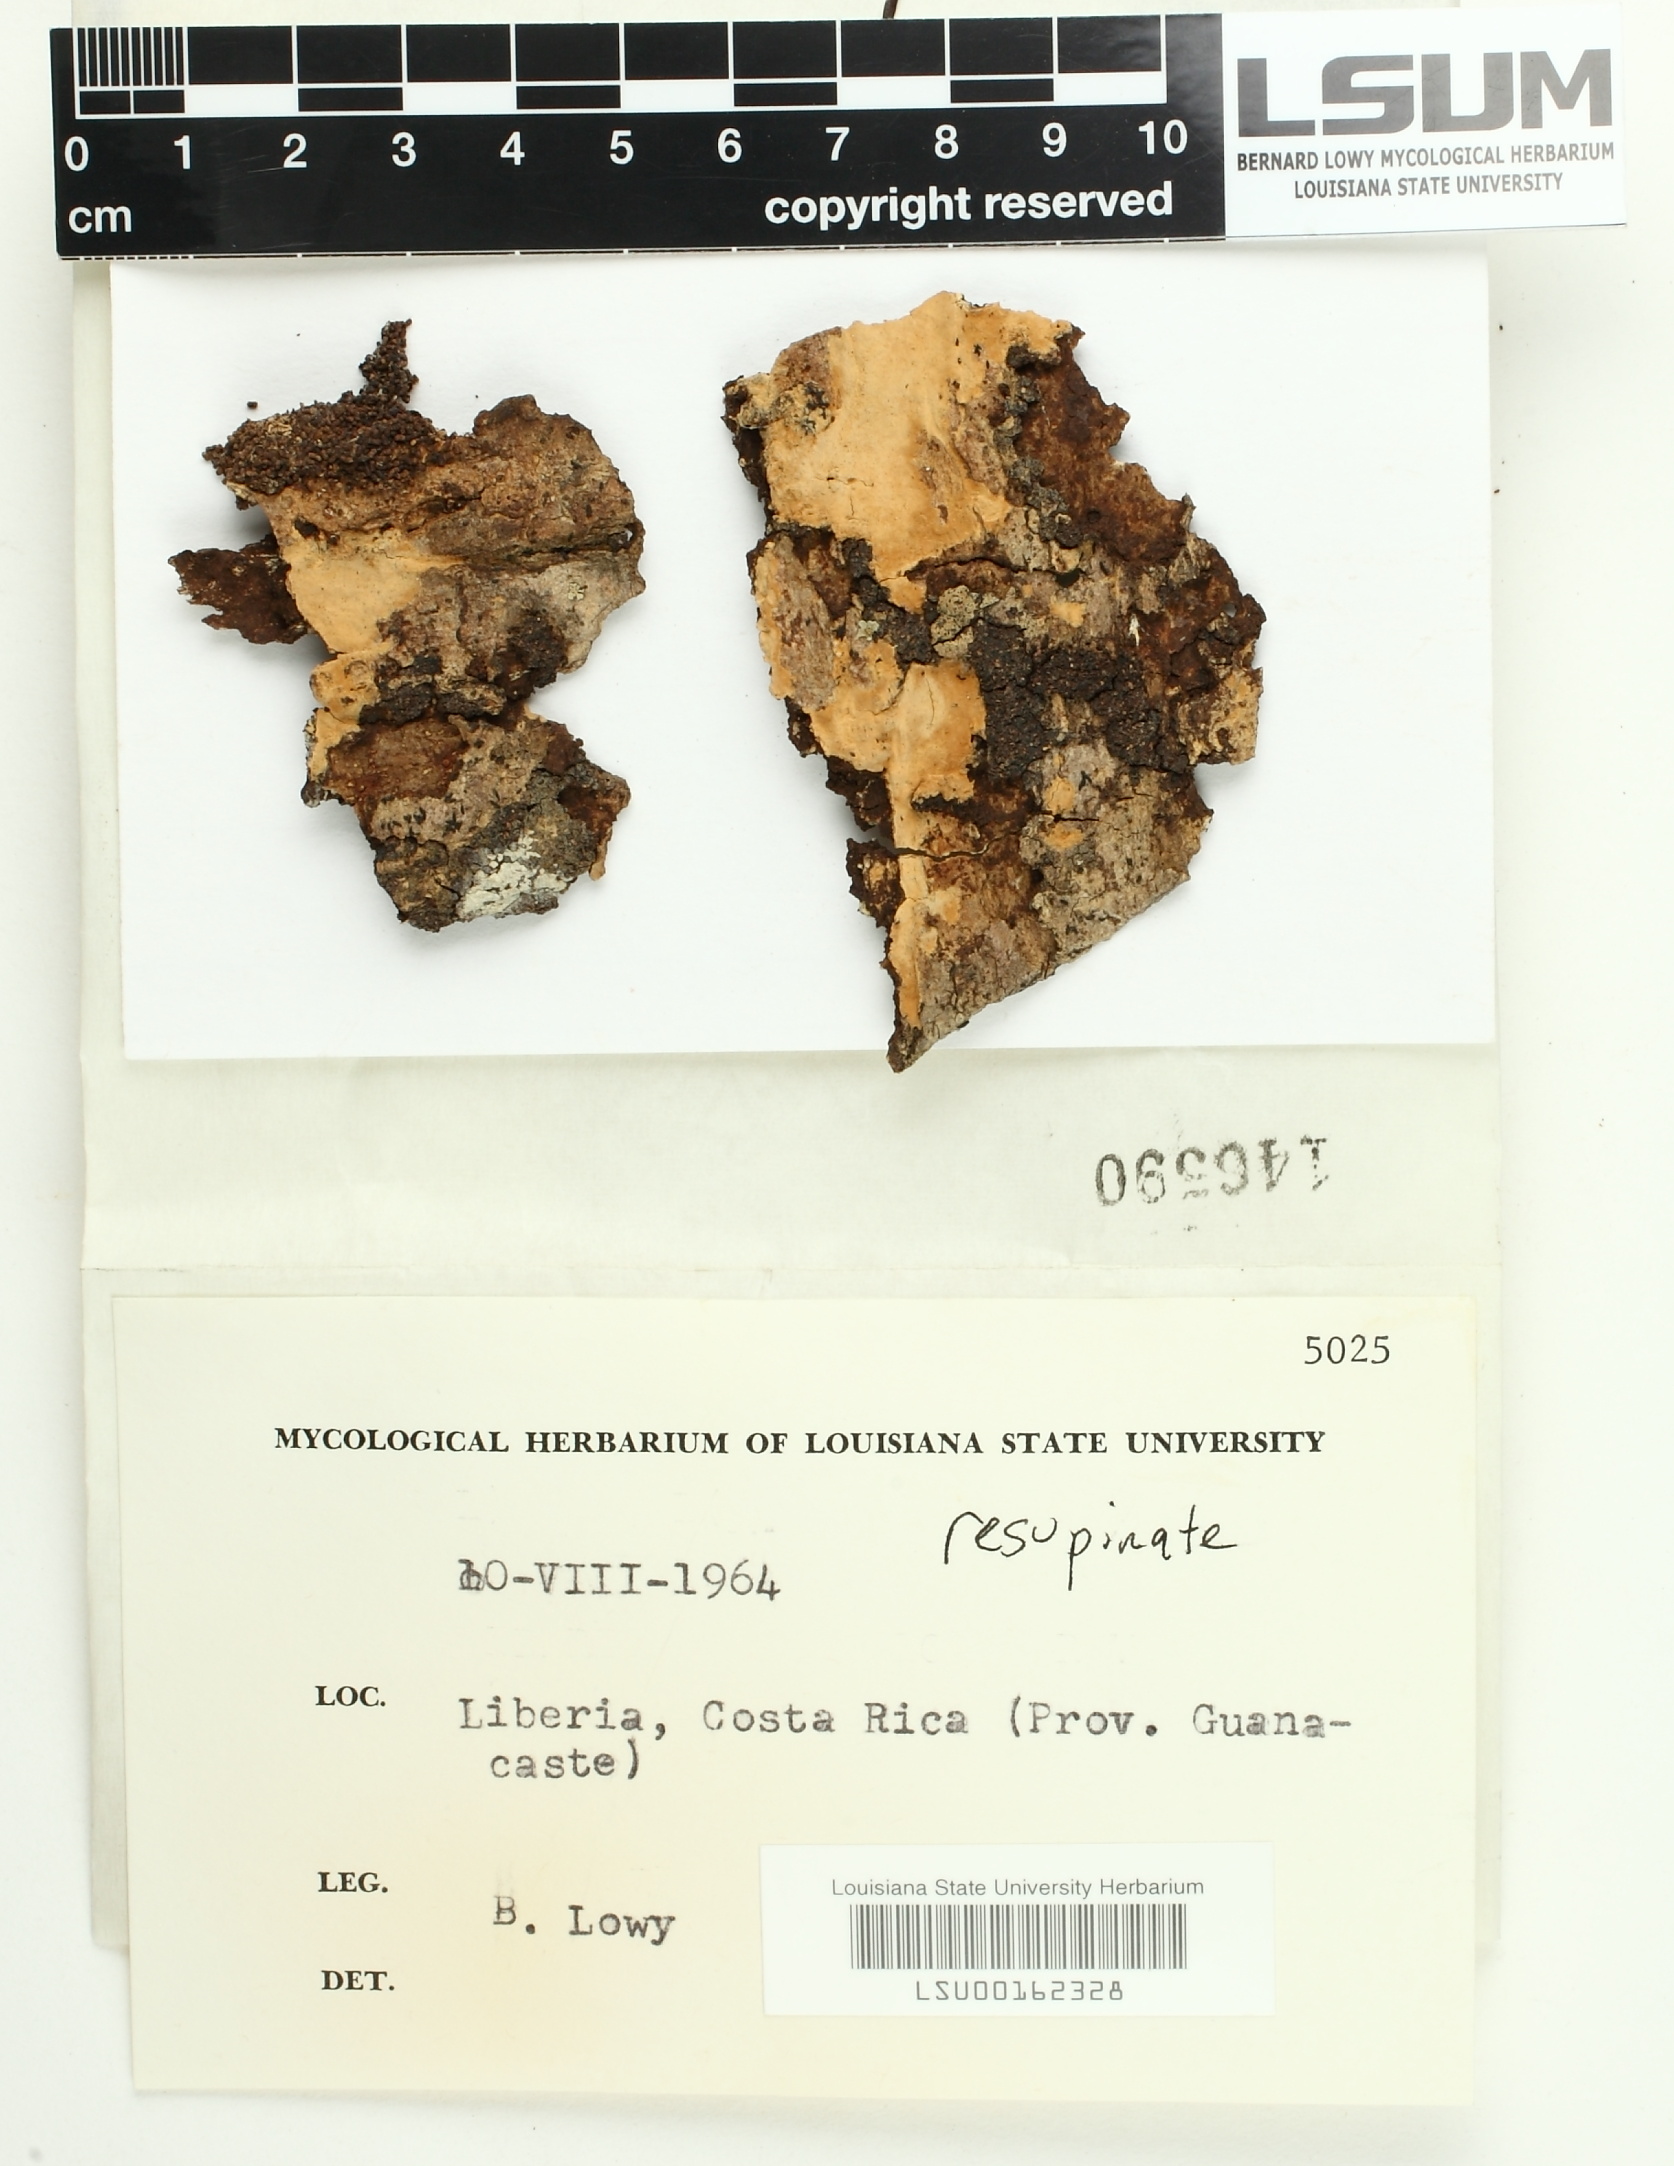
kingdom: Fungi
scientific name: Fungi
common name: Fungi
